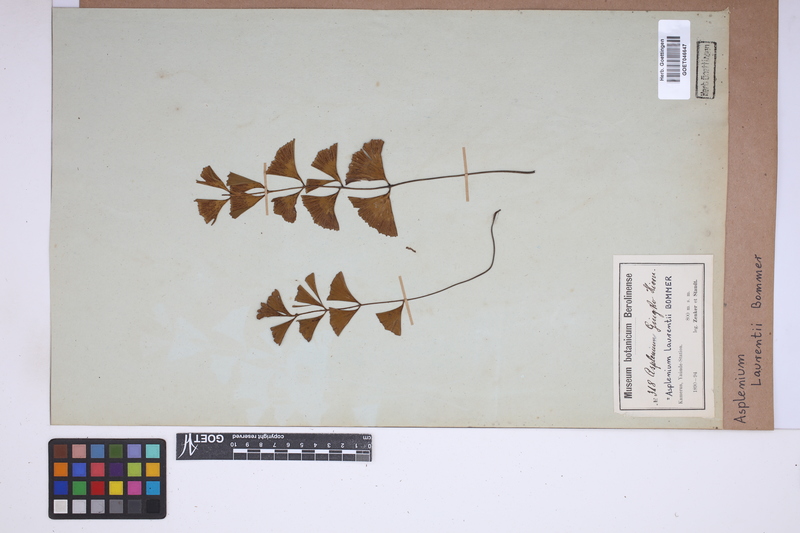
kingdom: Plantae
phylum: Tracheophyta
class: Polypodiopsida
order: Polypodiales
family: Aspleniaceae
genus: Asplenium
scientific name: Asplenium laurentii
